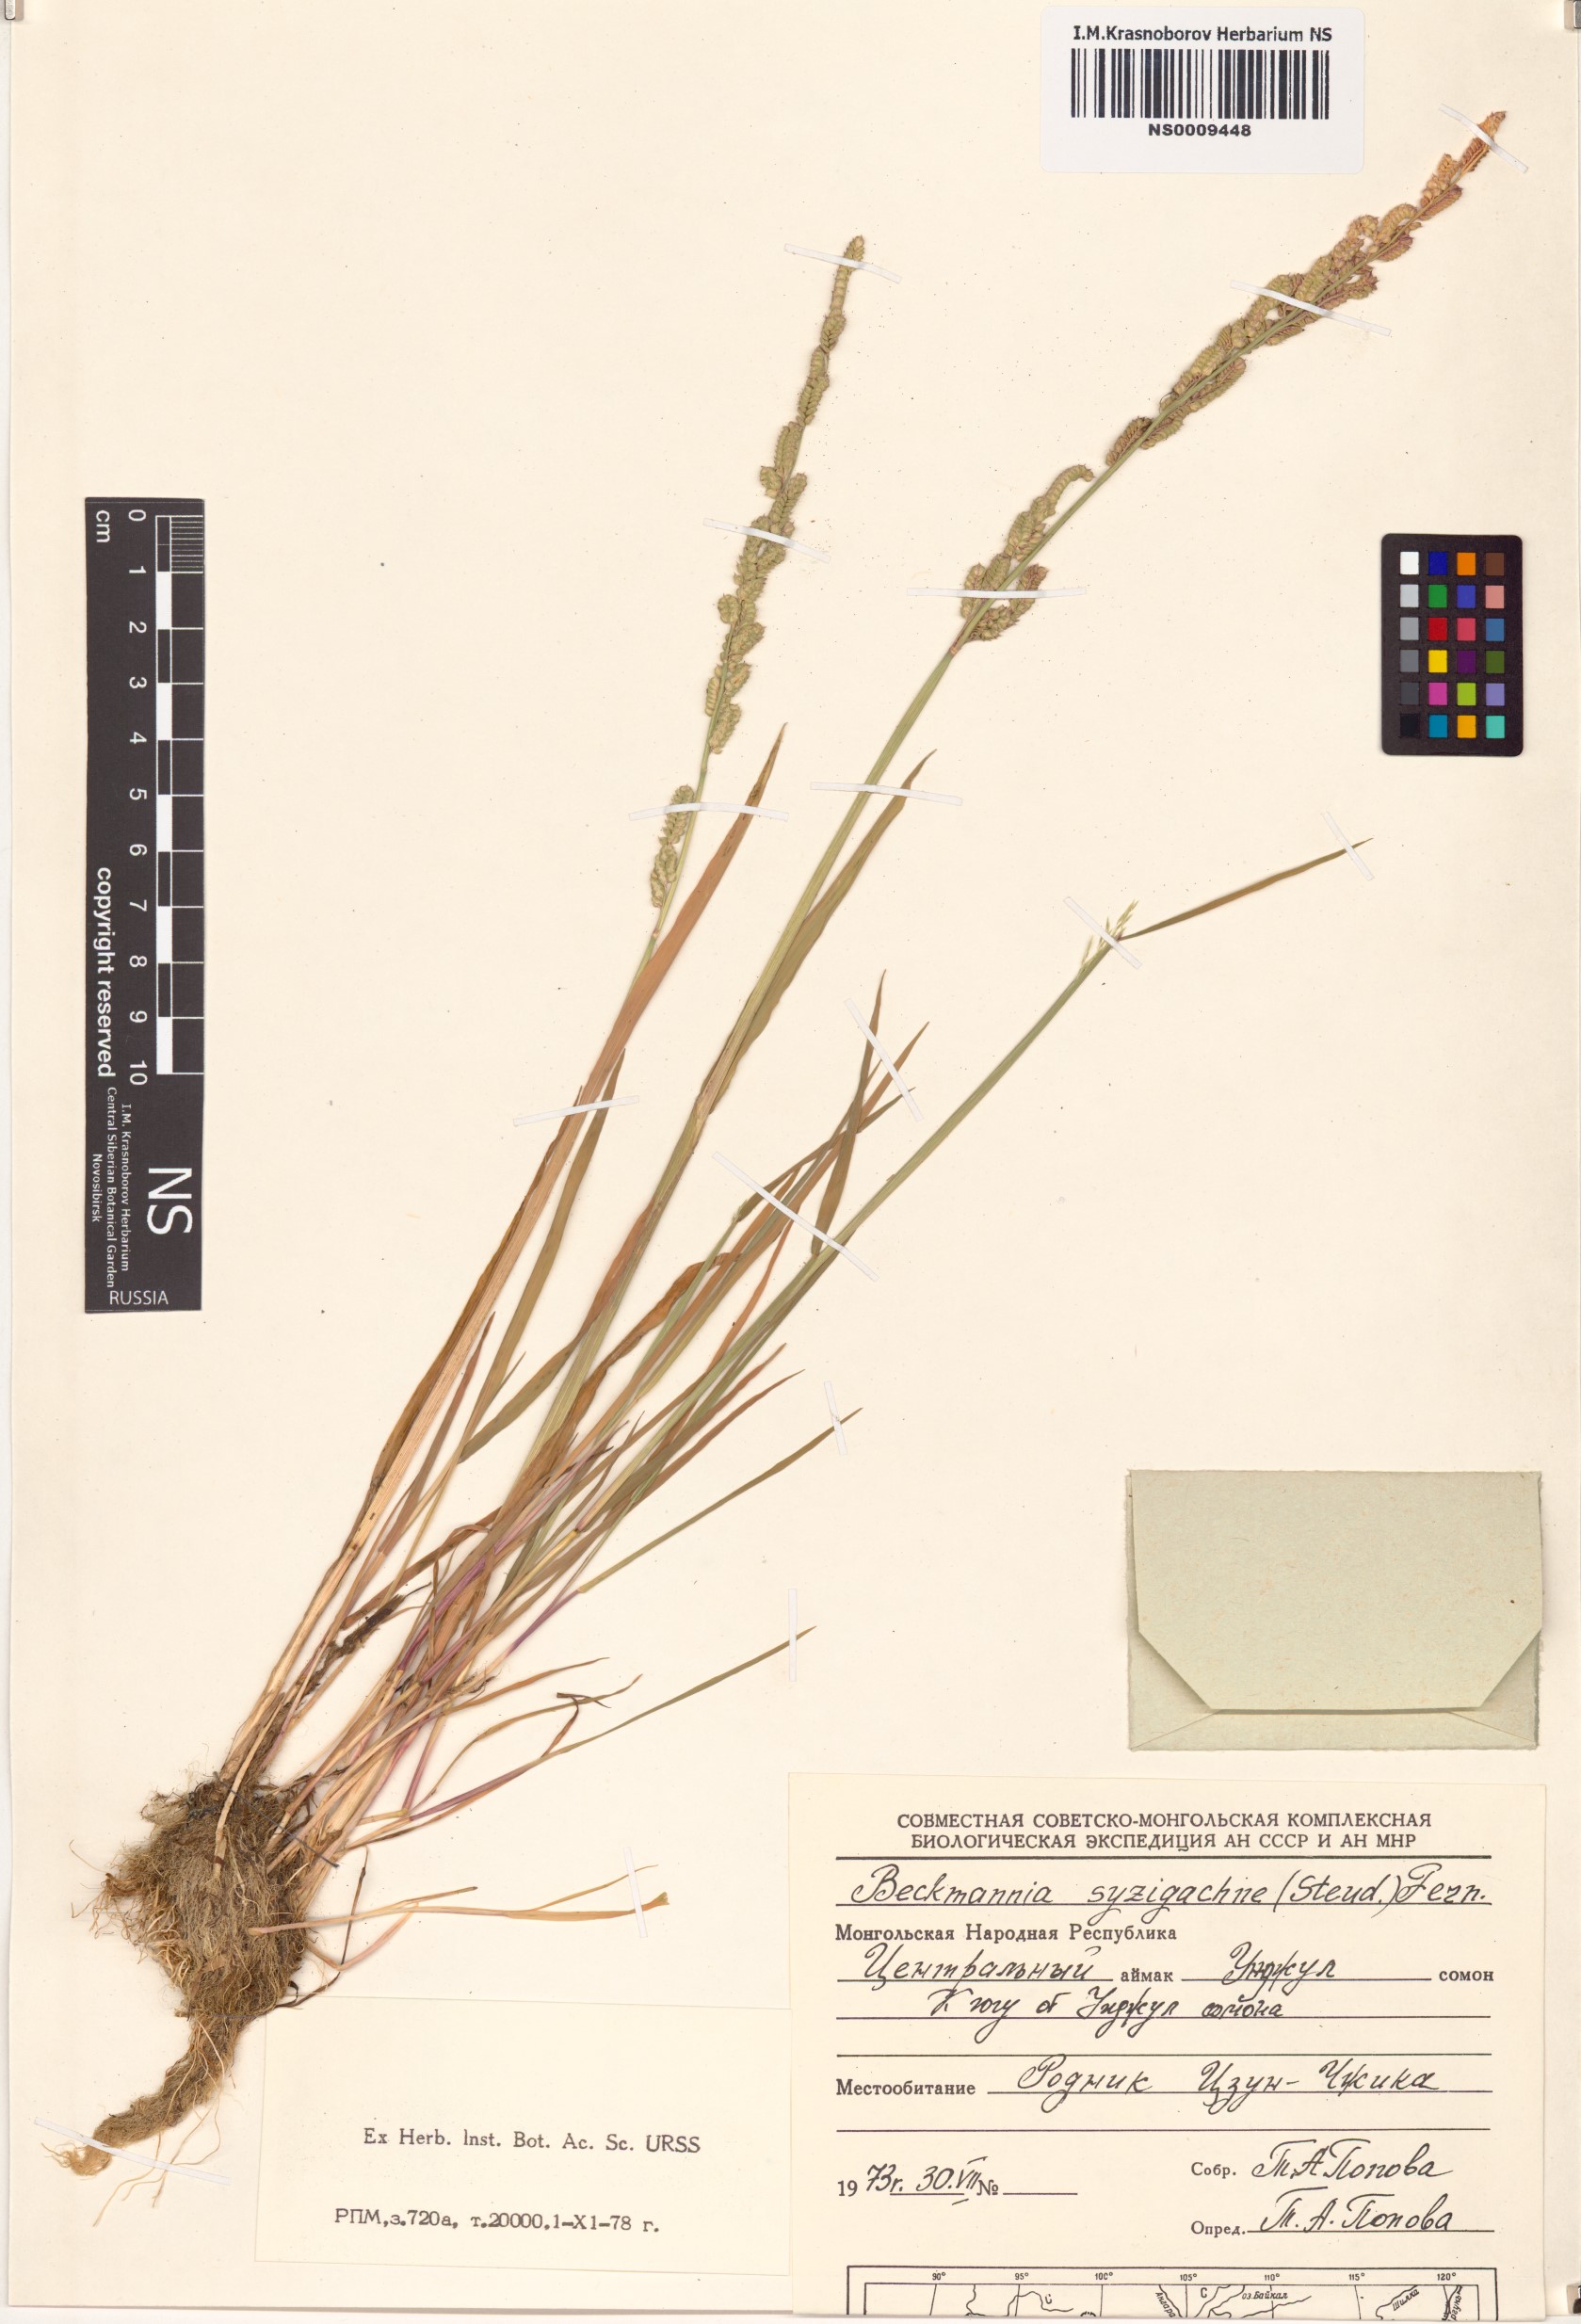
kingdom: Plantae
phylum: Tracheophyta
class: Liliopsida
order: Poales
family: Poaceae
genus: Beckmannia
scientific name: Beckmannia syzigachne
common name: American slough-grass
